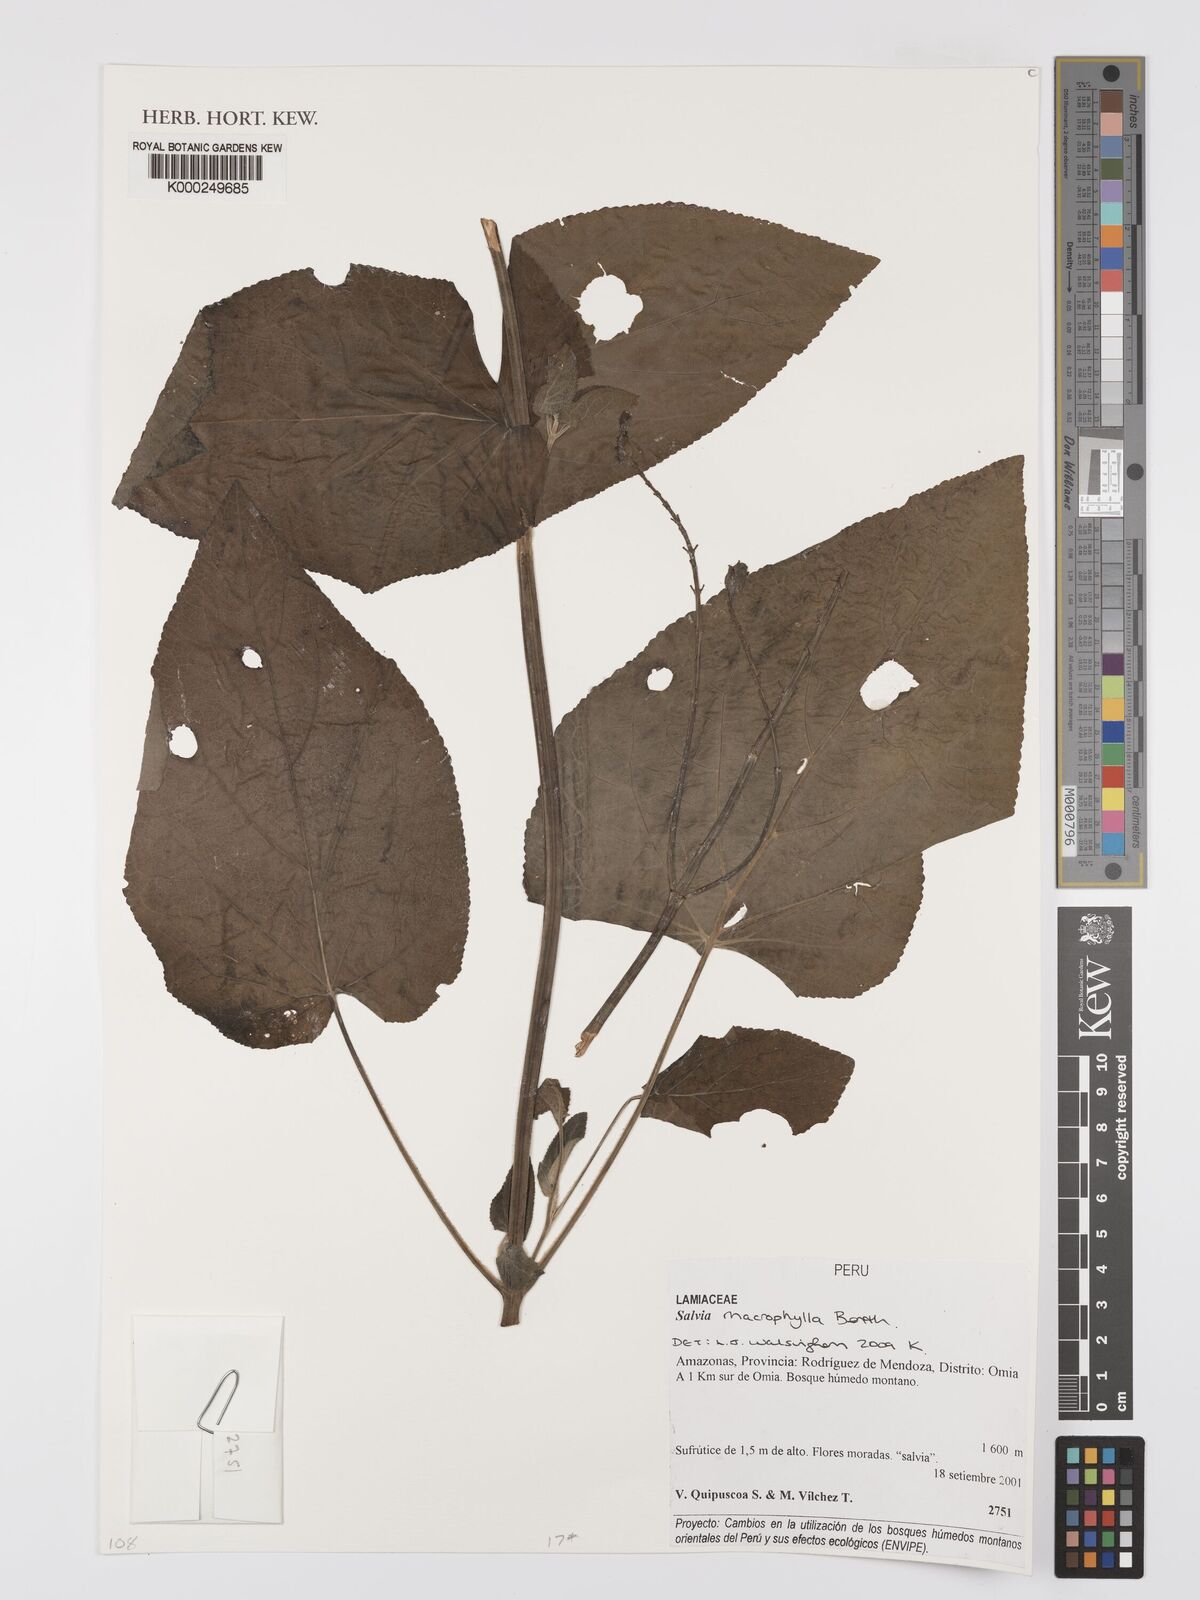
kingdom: Plantae
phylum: Tracheophyta
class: Magnoliopsida
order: Lamiales
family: Lamiaceae
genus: Salvia
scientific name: Salvia macrophylla
